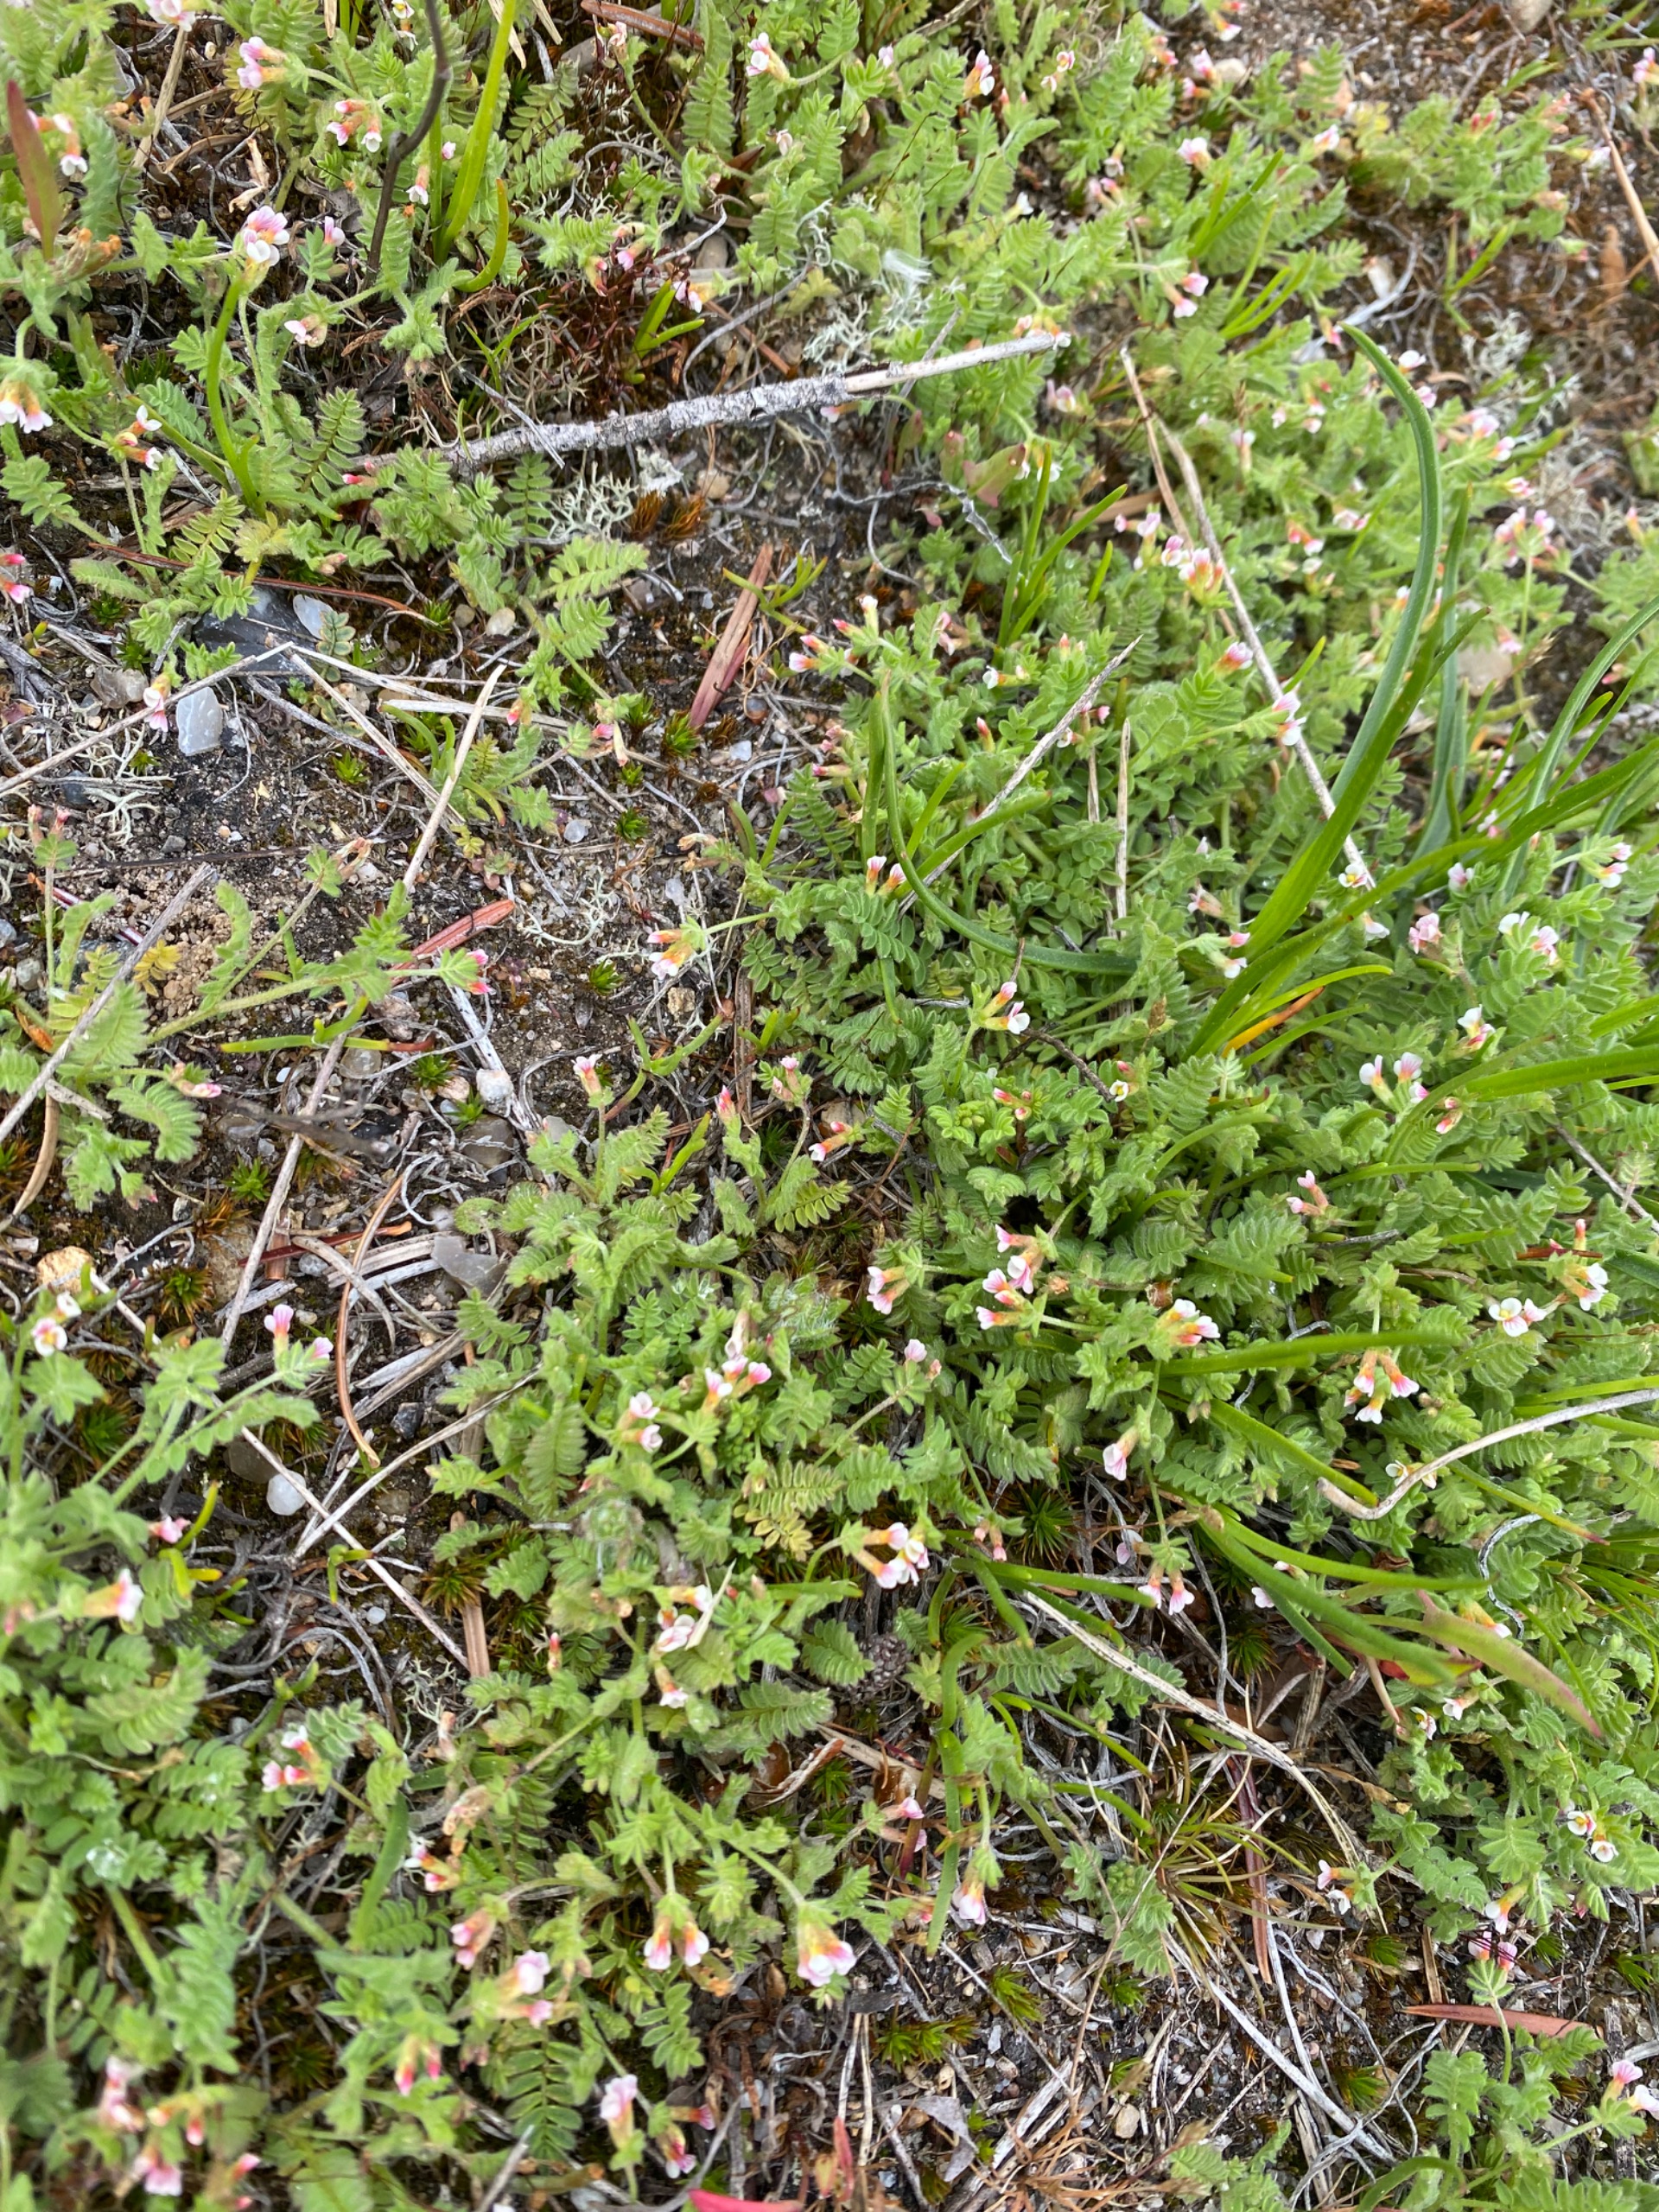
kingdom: Plantae
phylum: Tracheophyta
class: Magnoliopsida
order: Fabales
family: Fabaceae
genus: Ornithopus
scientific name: Ornithopus perpusillus
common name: Liden fugleklo
